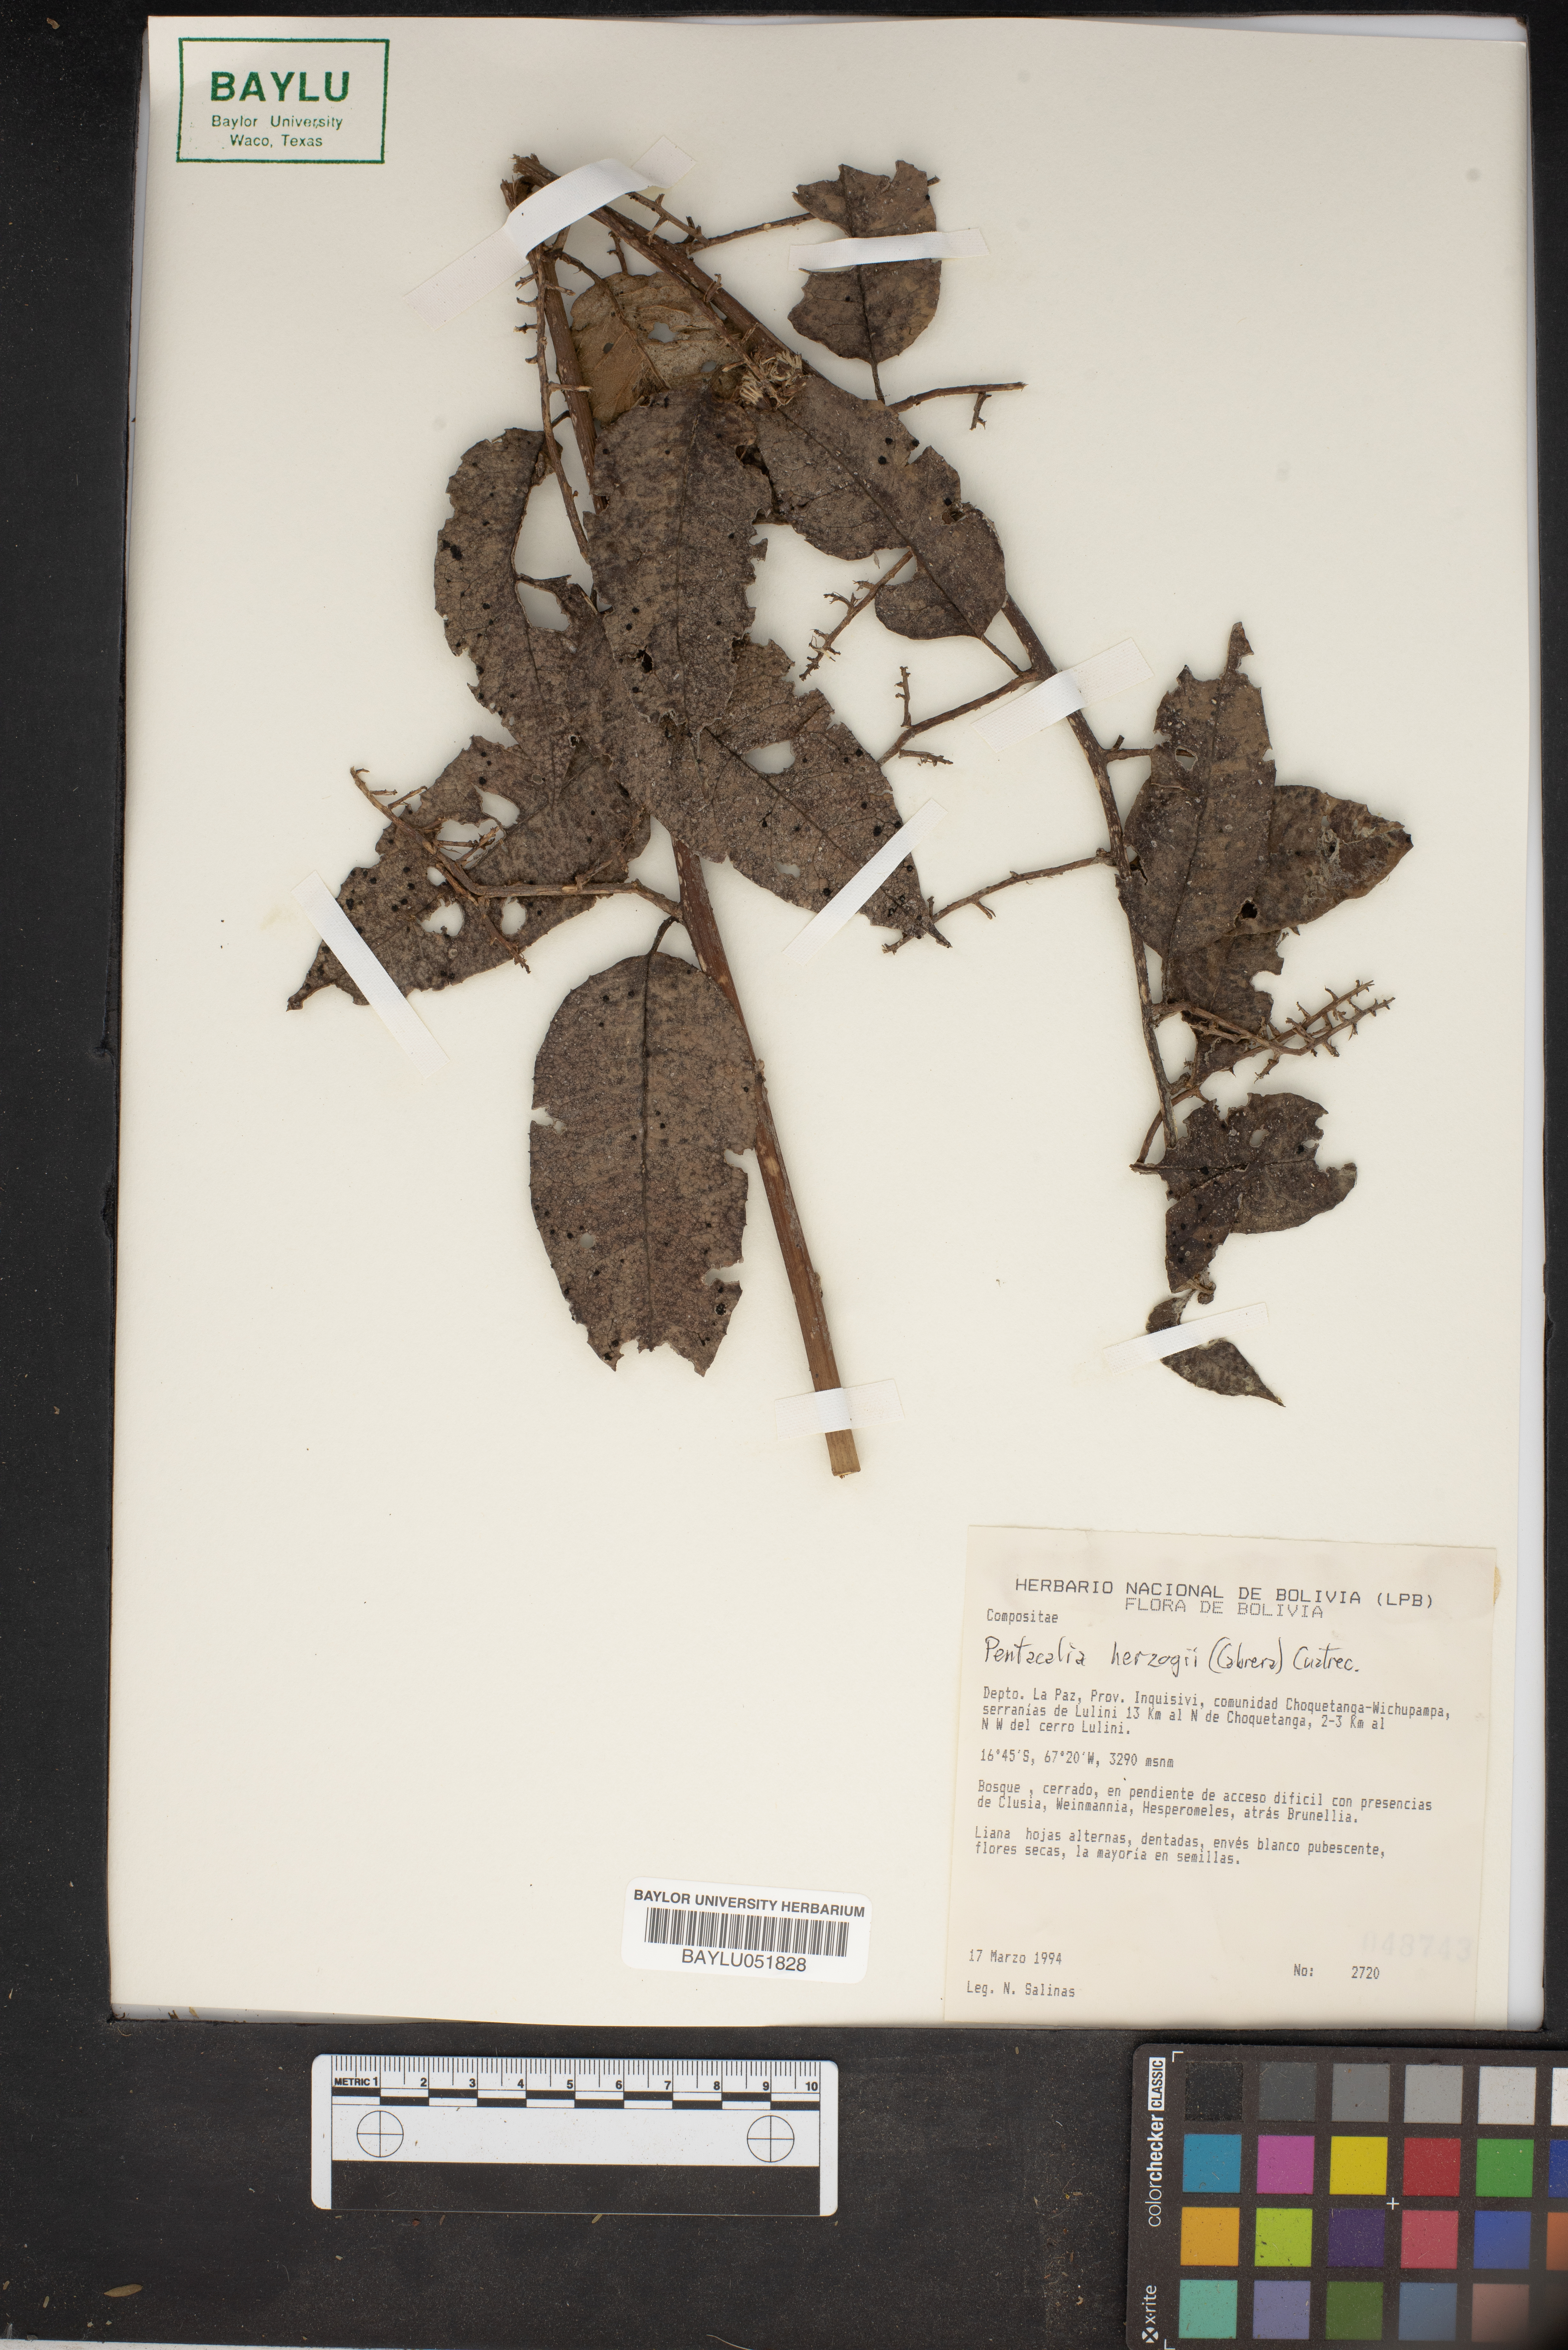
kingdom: Plantae
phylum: Tracheophyta
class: Magnoliopsida
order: Asterales
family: Asteraceae
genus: Pentacalia
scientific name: Pentacalia herzogii
